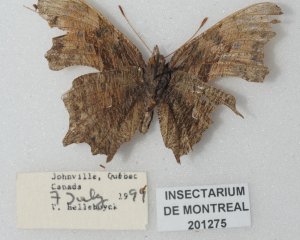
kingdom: Animalia
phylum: Arthropoda
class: Insecta
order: Lepidoptera
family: Nymphalidae
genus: Polygonia
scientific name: Polygonia progne
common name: Gray Comma
